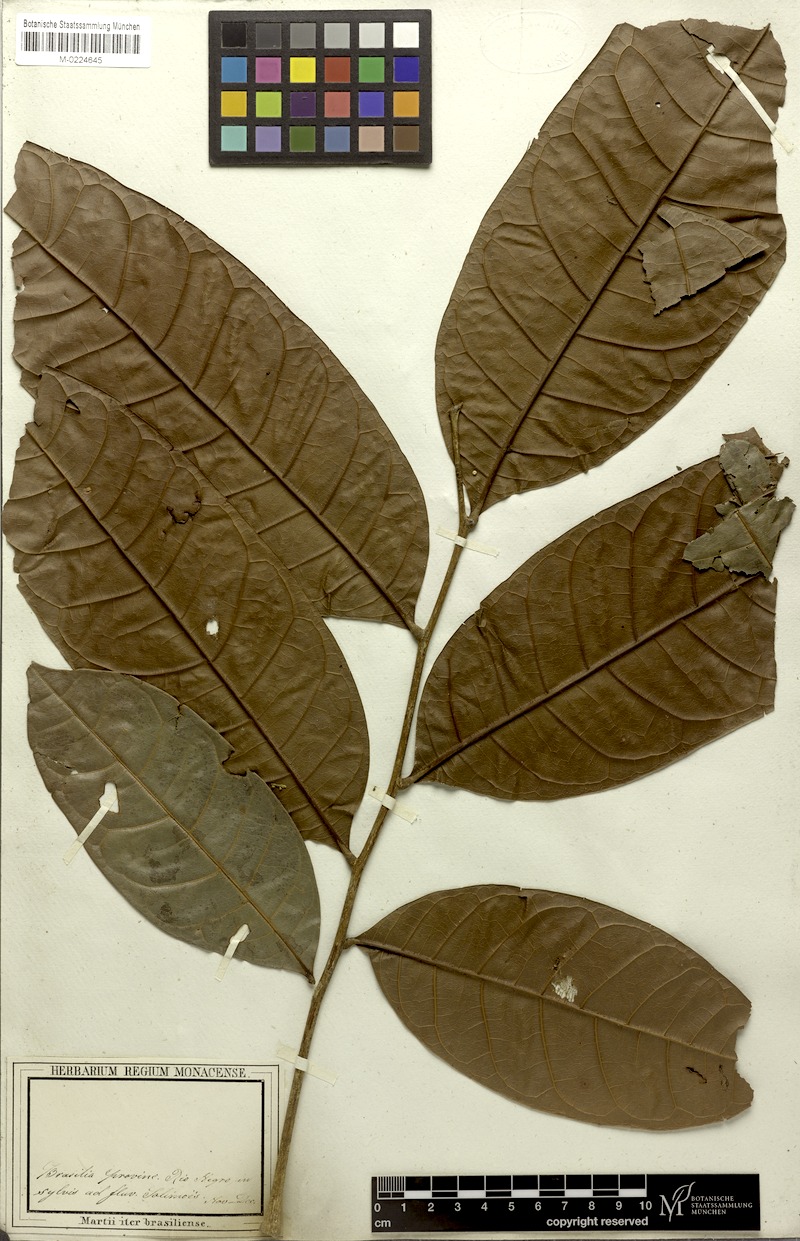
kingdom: Plantae
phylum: Tracheophyta
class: Magnoliopsida
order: Sapindales
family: Sapindaceae
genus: Porocystis
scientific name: Porocystis toulicioides
